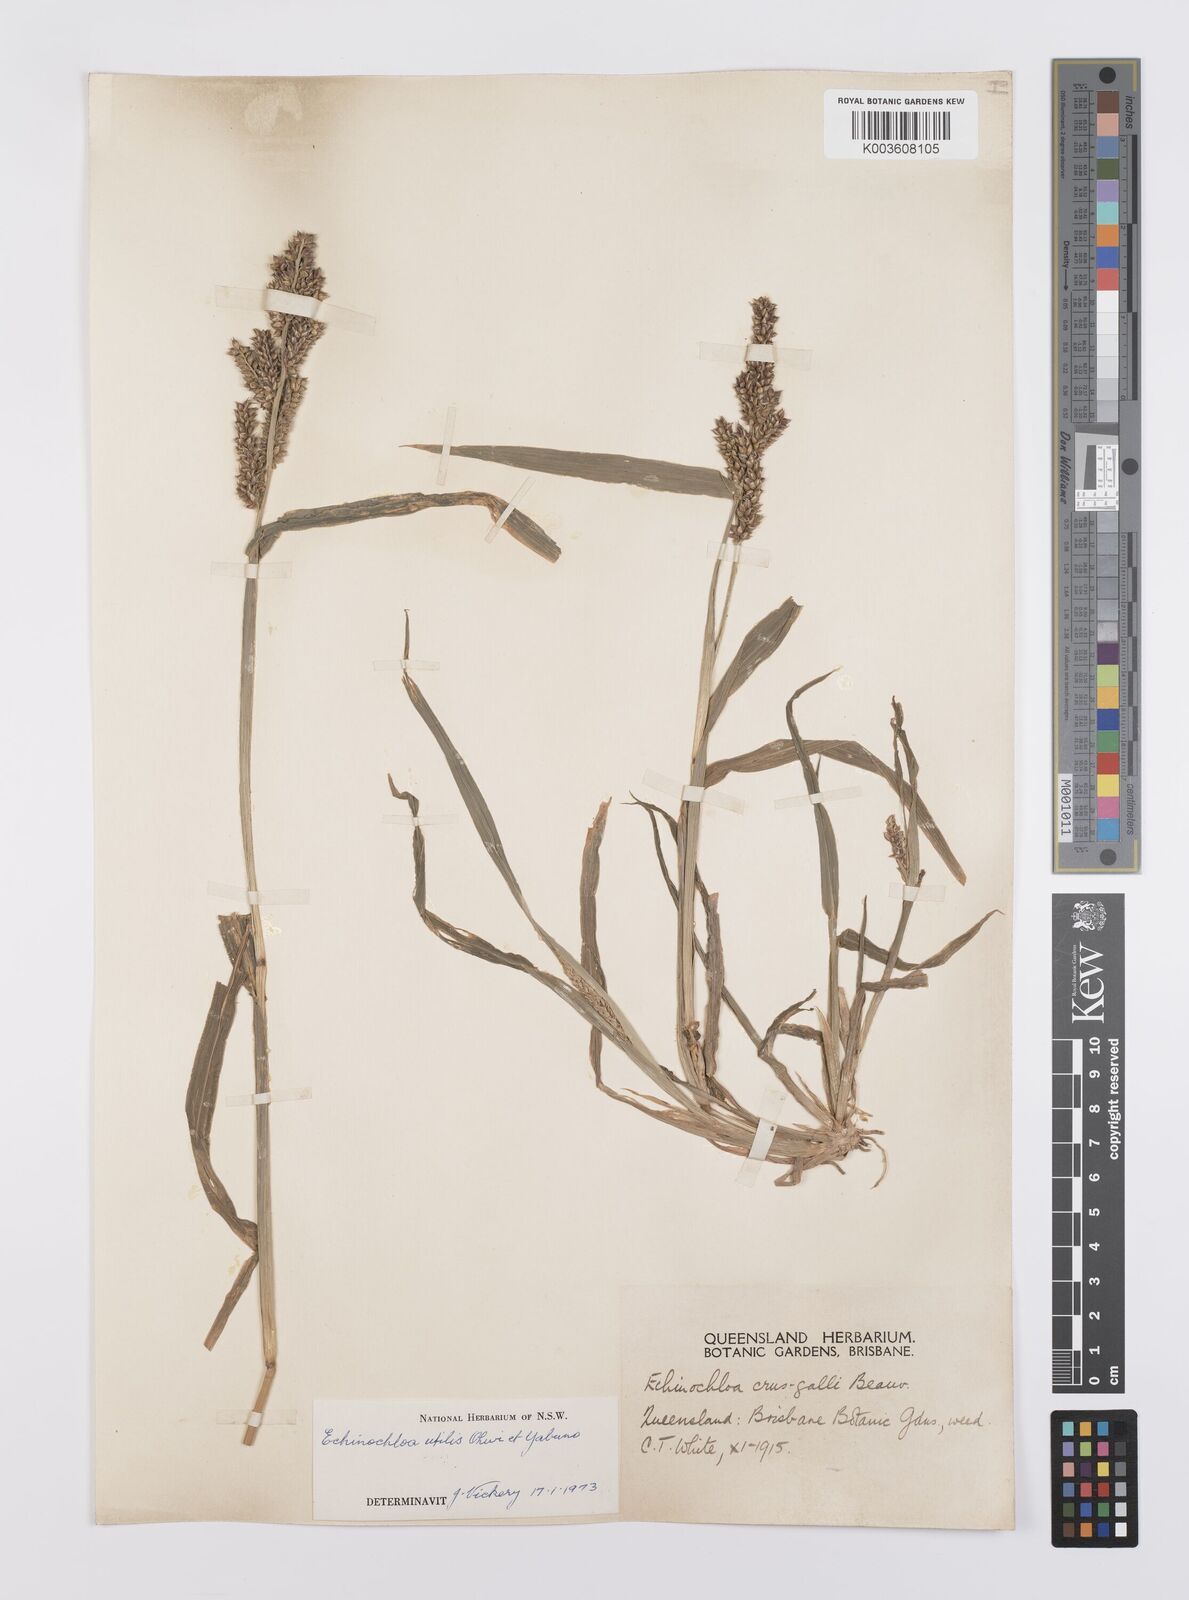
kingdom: Plantae
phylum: Tracheophyta
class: Liliopsida
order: Poales
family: Poaceae
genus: Echinochloa
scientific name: Echinochloa crus-galli
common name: Cockspur
